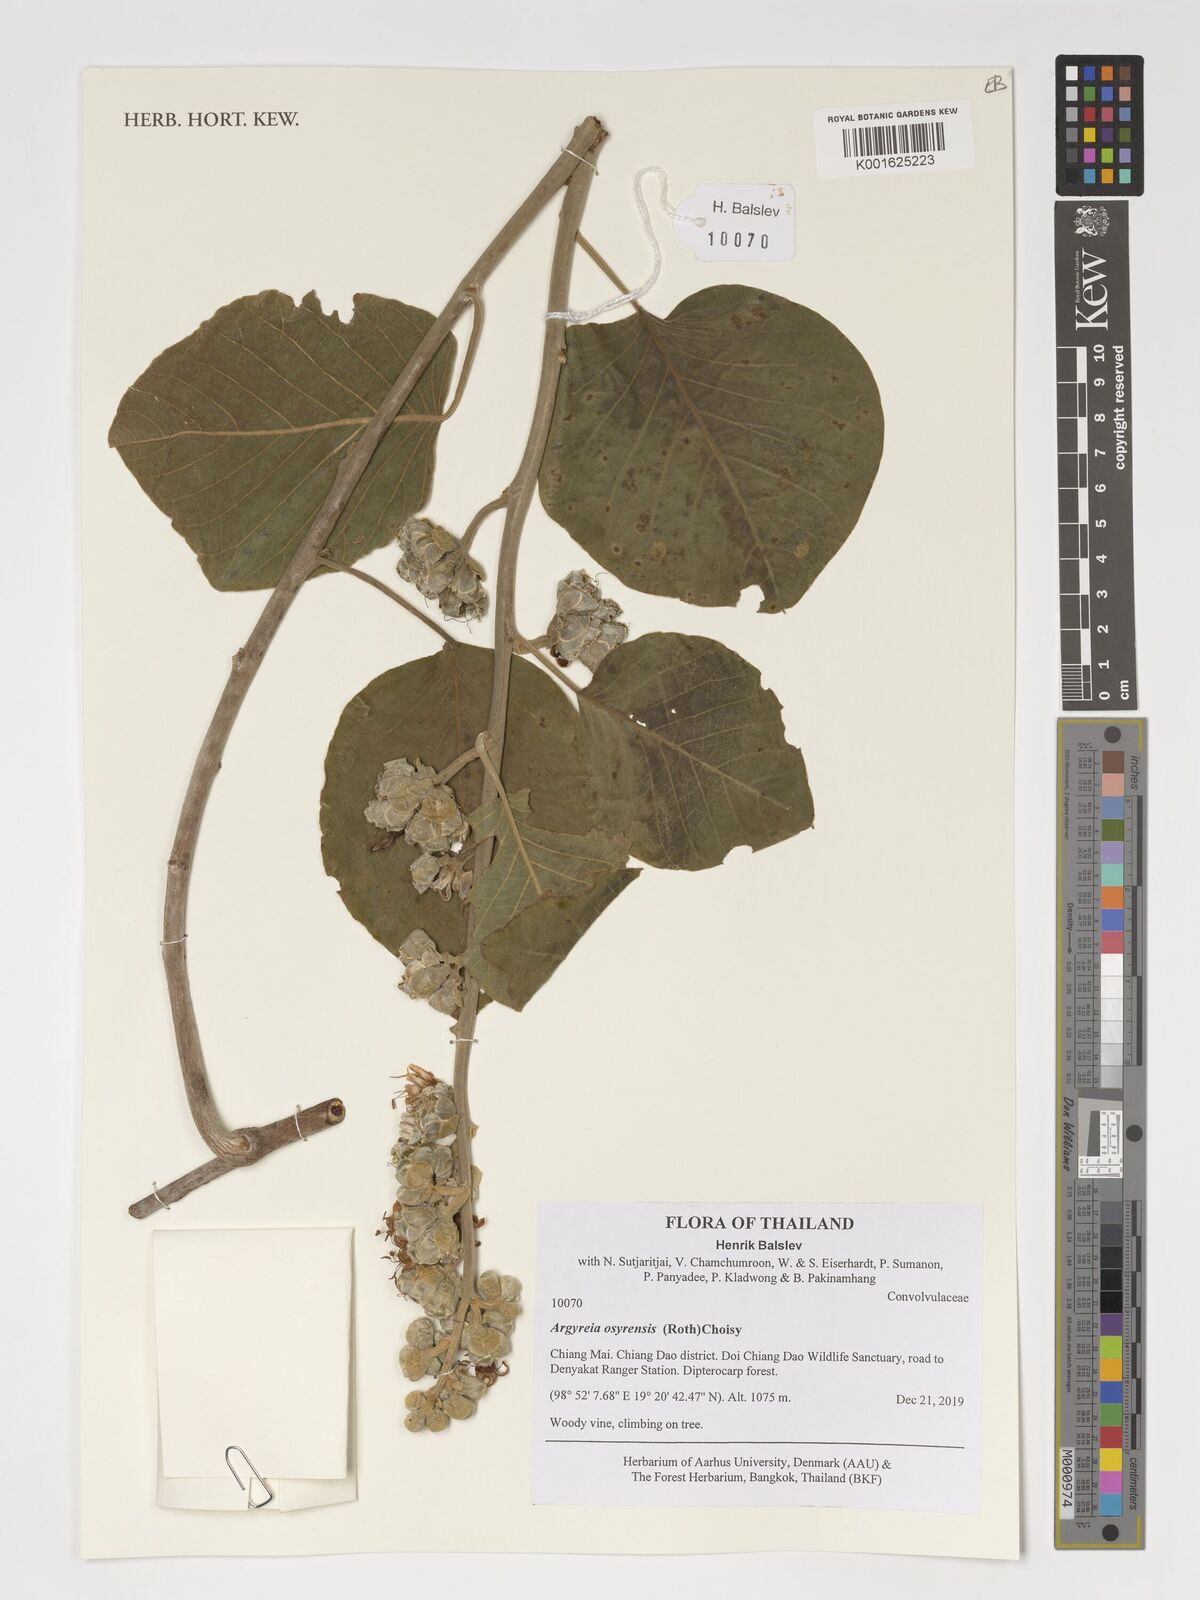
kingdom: Plantae
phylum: Tracheophyta
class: Magnoliopsida
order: Solanales
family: Convolvulaceae
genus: Argyreia
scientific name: Argyreia osyrensis
